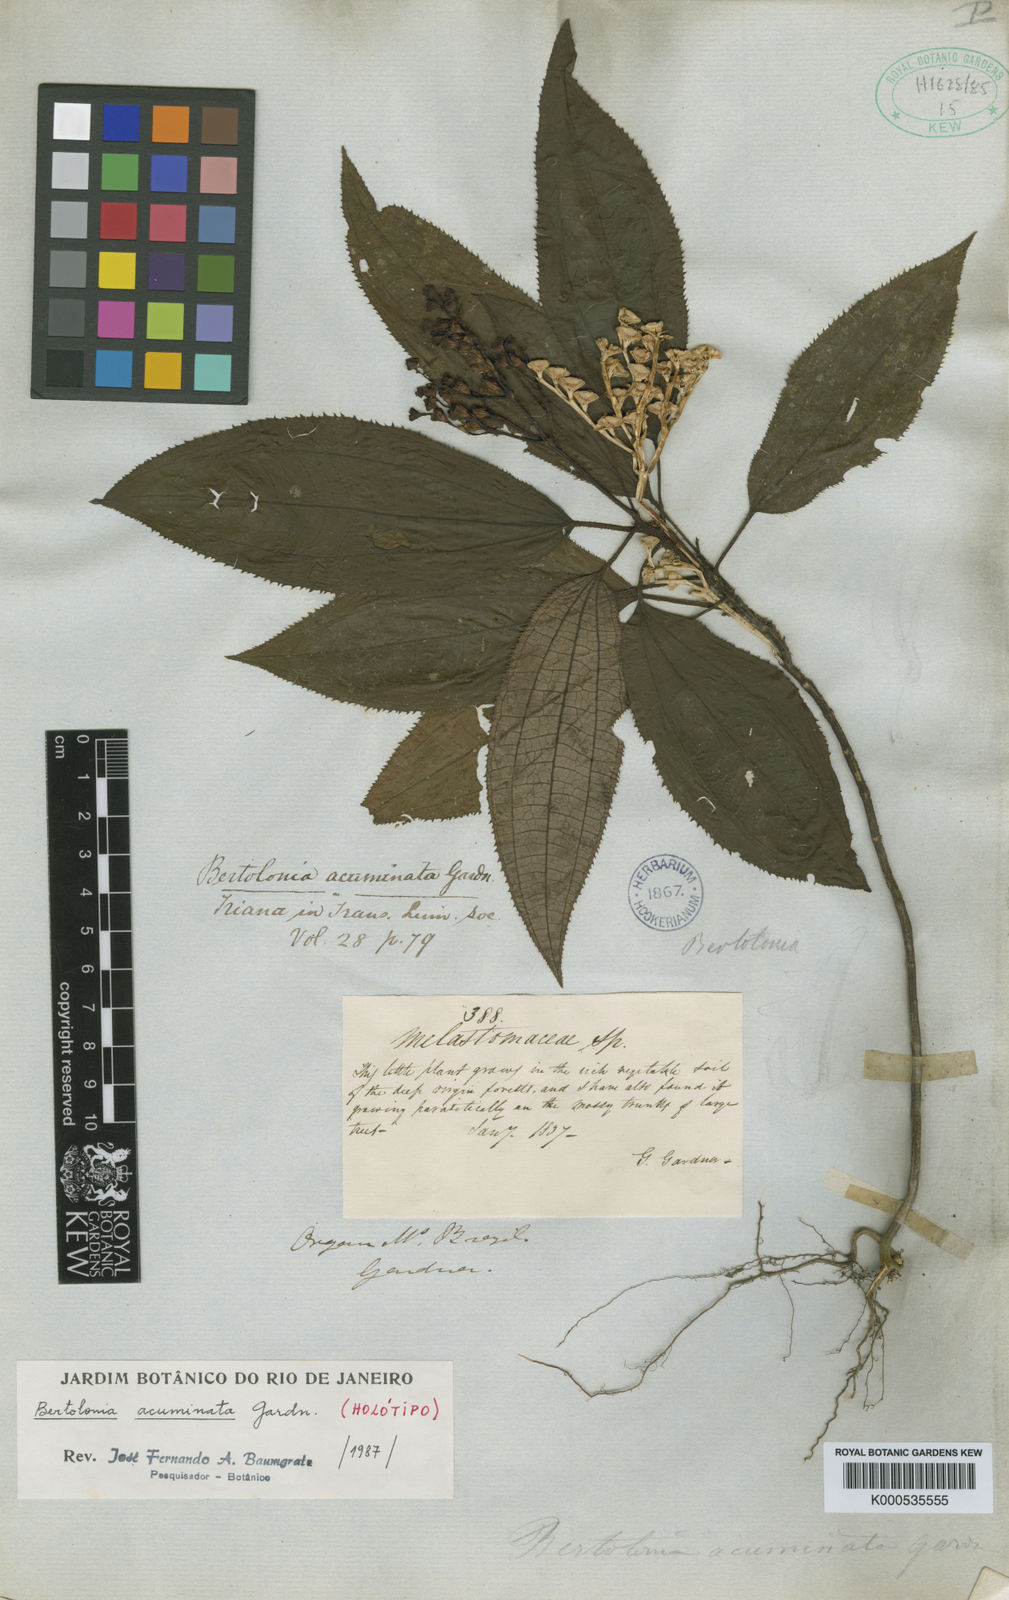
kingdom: Plantae
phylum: Tracheophyta
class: Magnoliopsida
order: Myrtales
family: Melastomataceae
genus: Bertolonia
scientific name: Bertolonia acuminata
